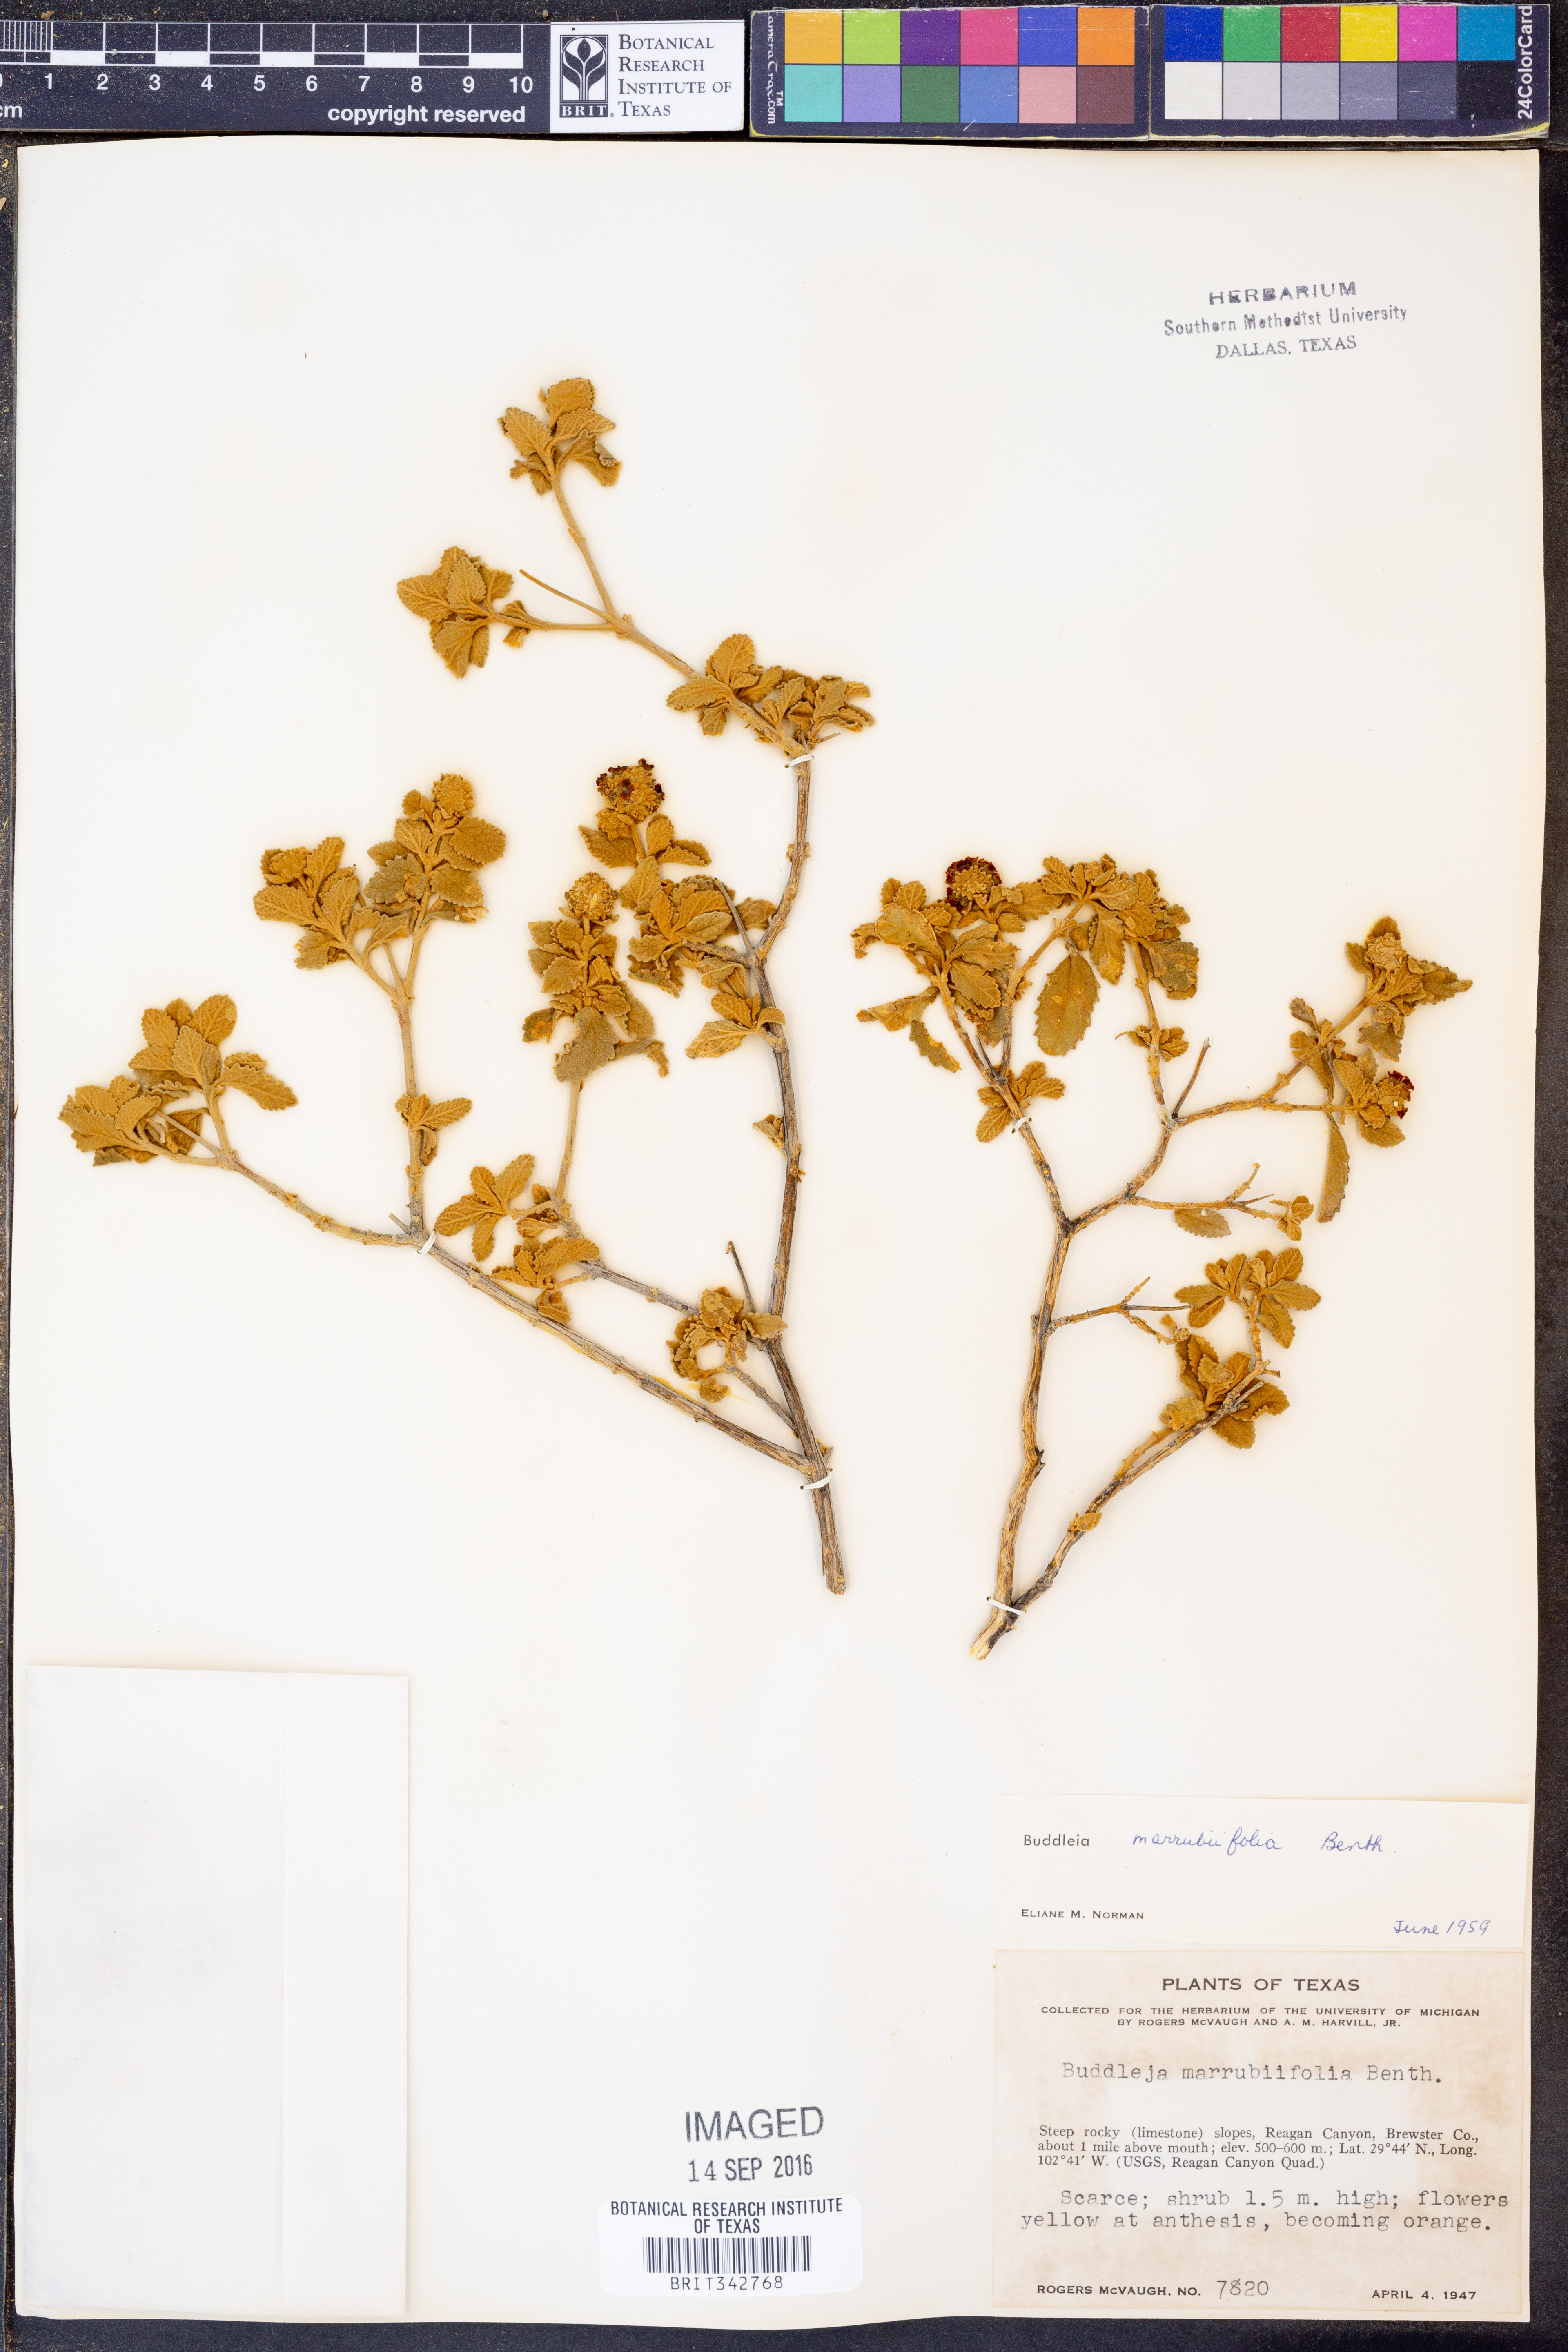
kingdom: Plantae
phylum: Tracheophyta
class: Magnoliopsida
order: Lamiales
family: Scrophulariaceae
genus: Buddleja
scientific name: Buddleja marrubiifolia
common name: Woolly butterfly-bush
